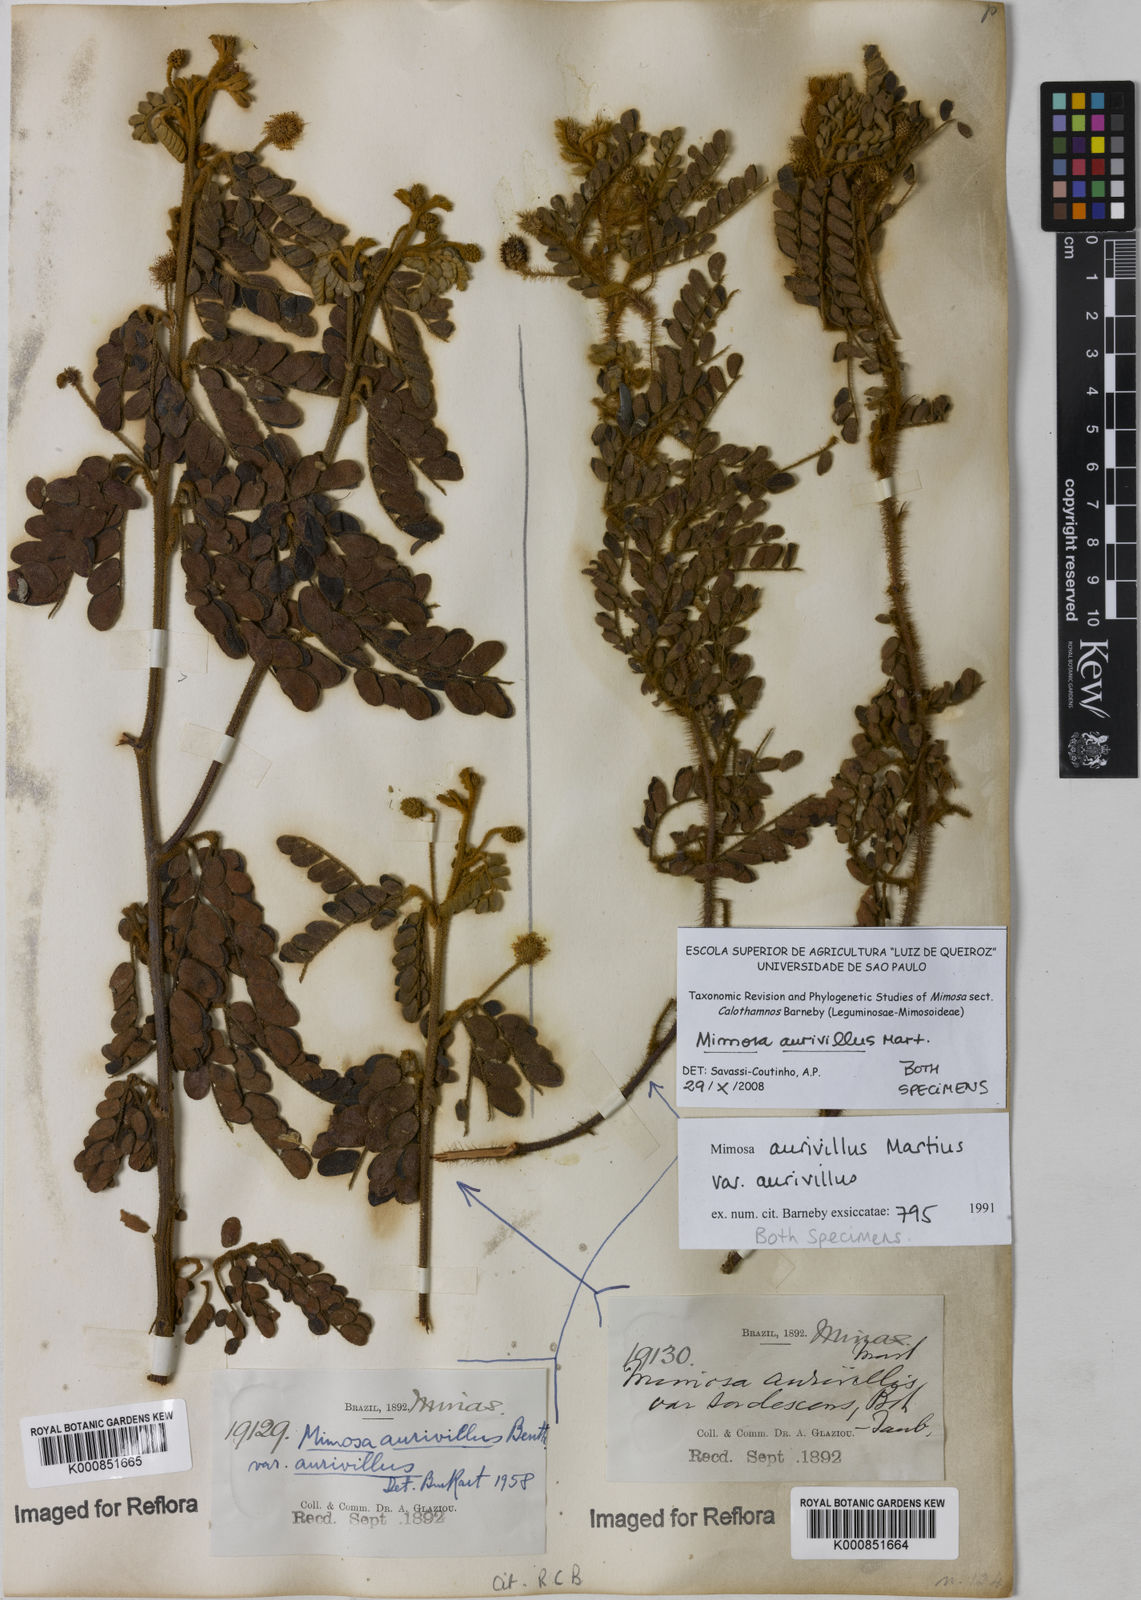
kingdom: Plantae
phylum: Tracheophyta
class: Magnoliopsida
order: Fabales
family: Fabaceae
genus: Mimosa
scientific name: Mimosa aurivillus
